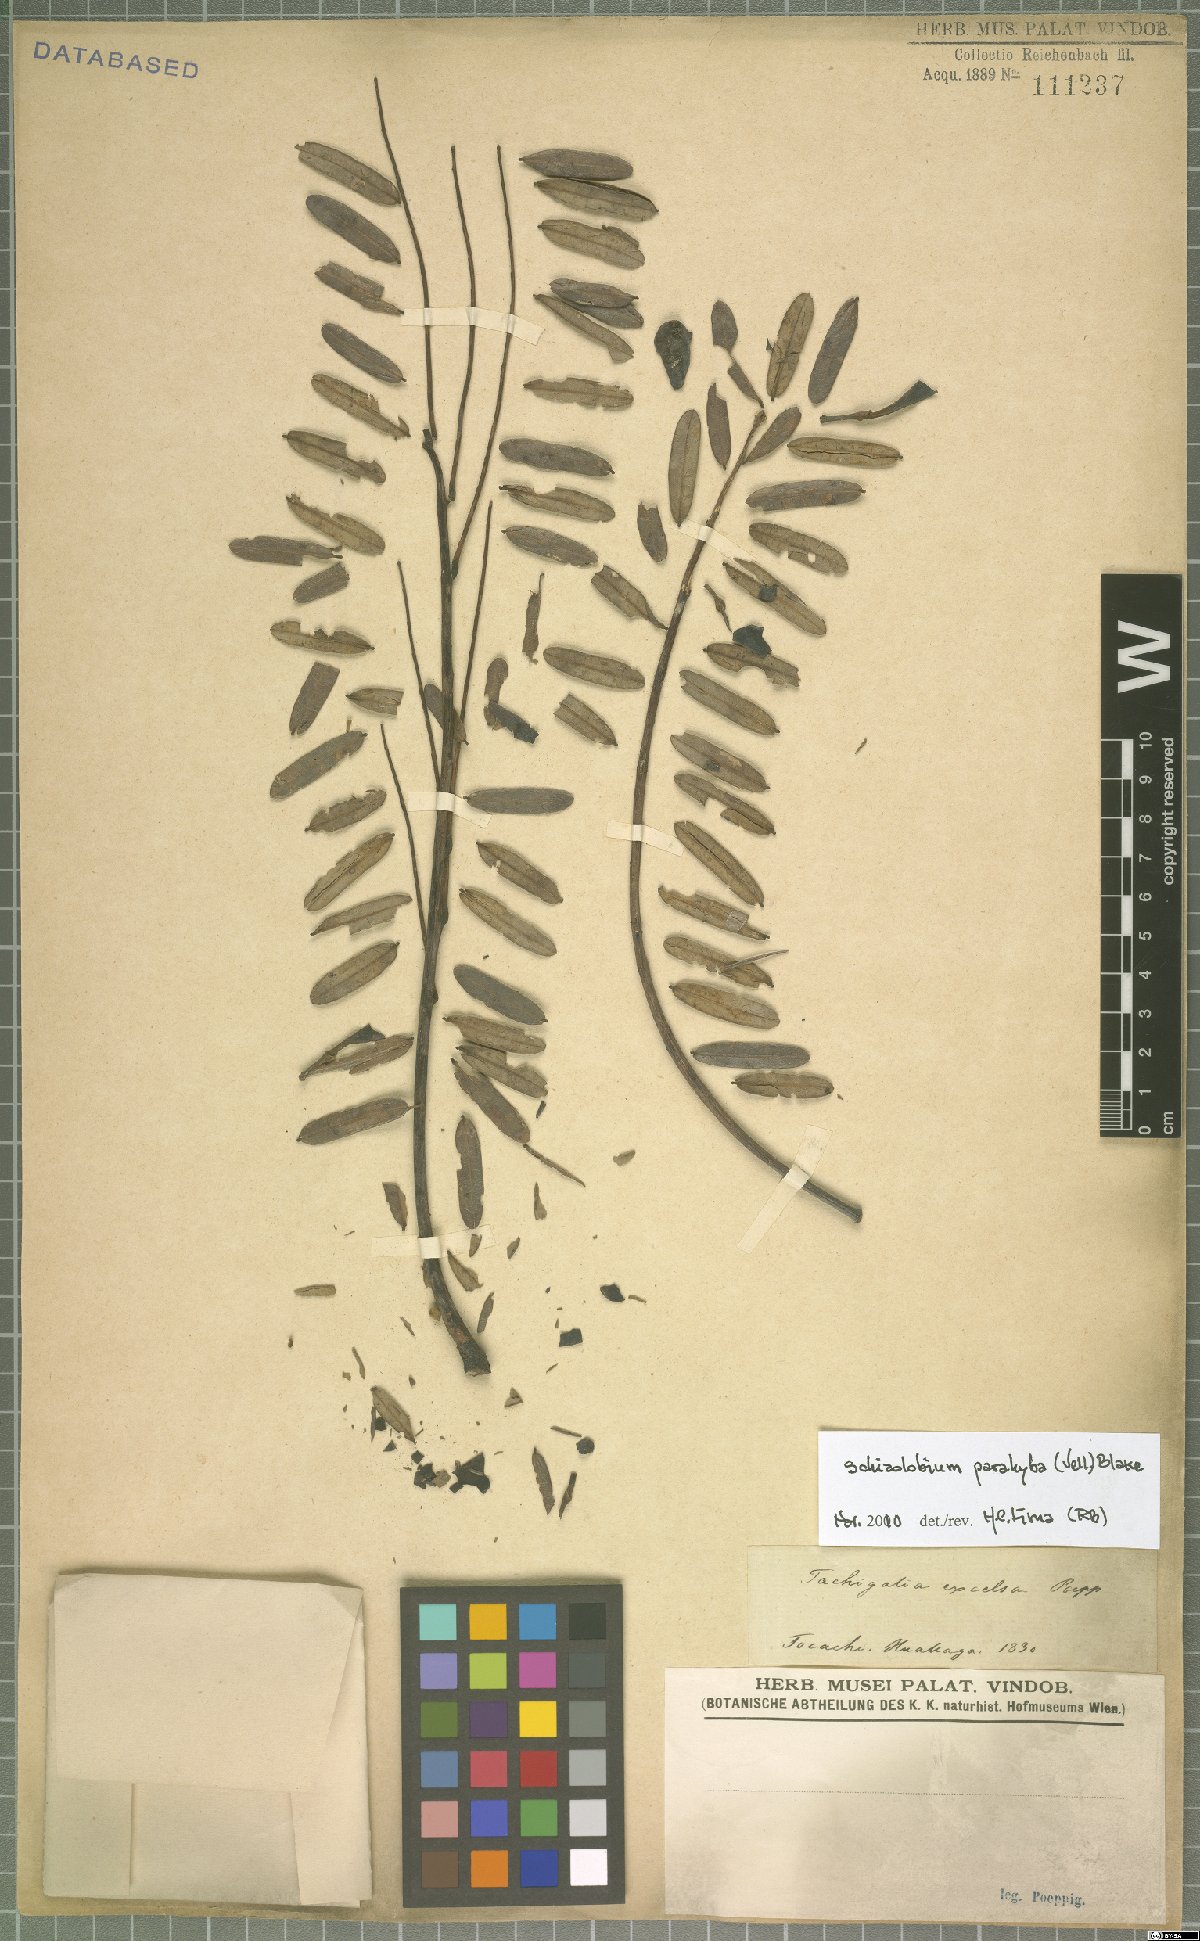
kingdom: Plantae
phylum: Tracheophyta
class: Magnoliopsida
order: Fabales
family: Fabaceae
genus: Schizolobium
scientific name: Schizolobium parahyba
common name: Brazilian firetree
